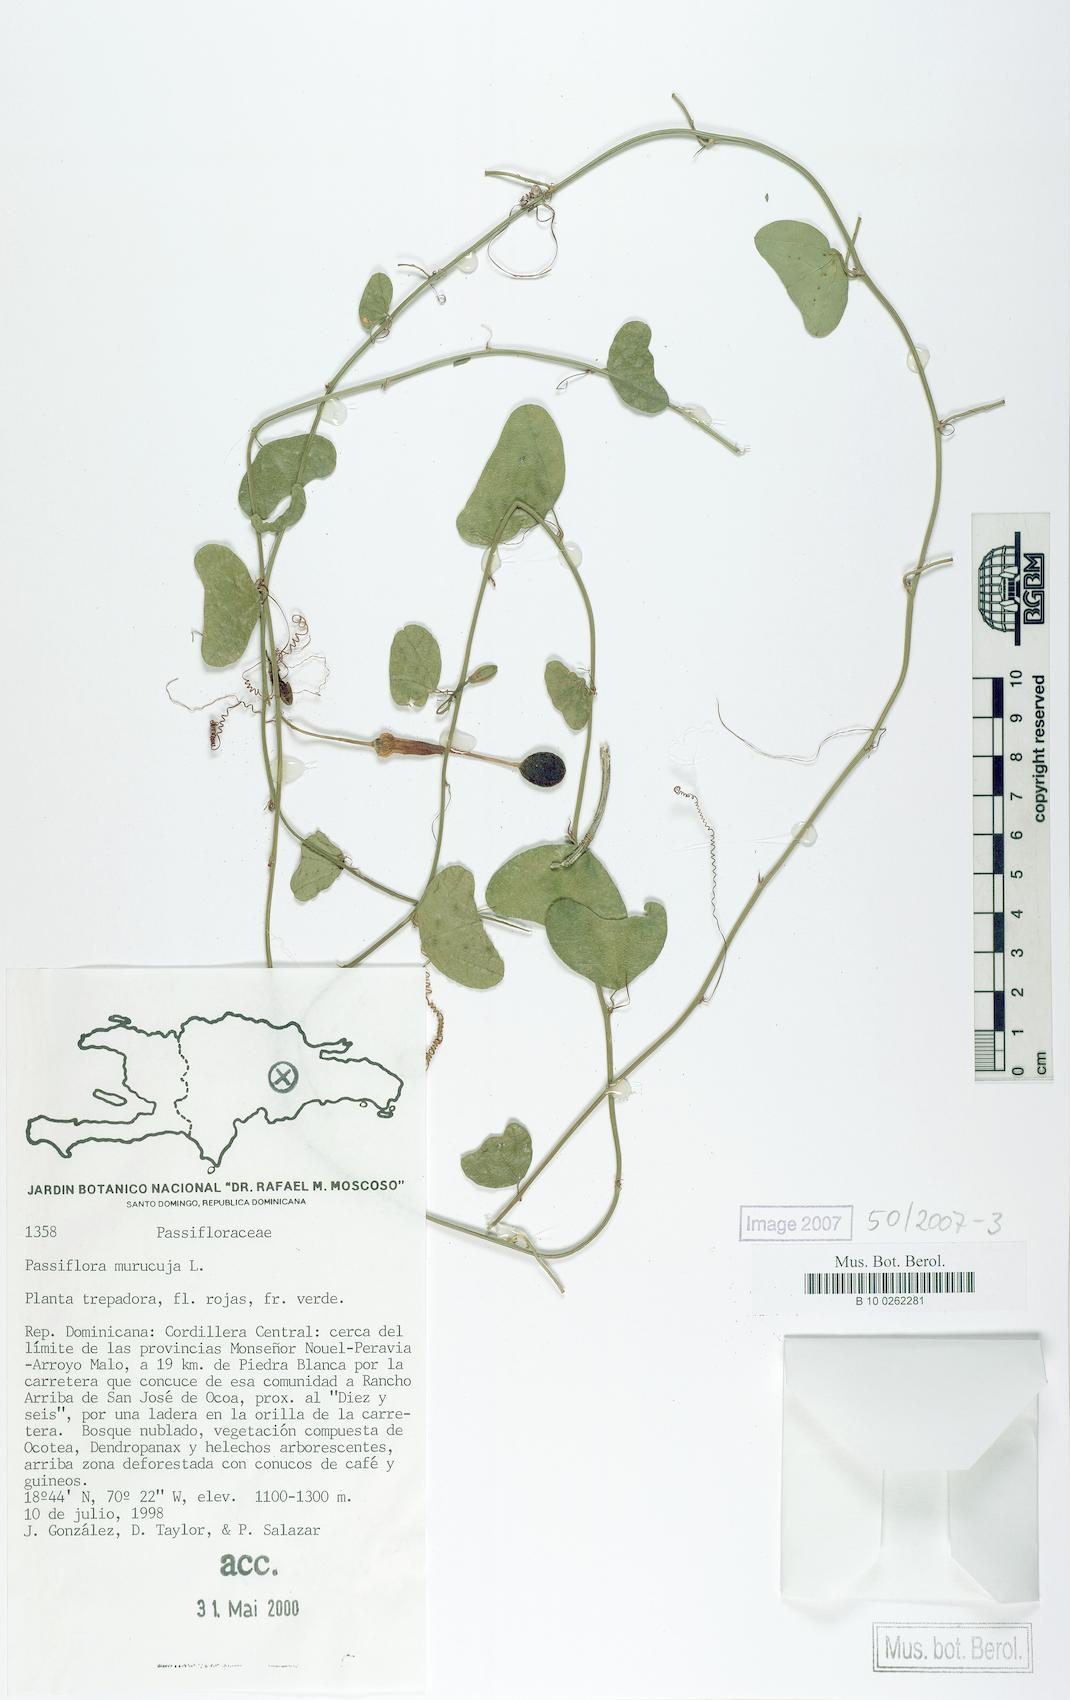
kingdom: Plantae
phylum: Tracheophyta
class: Magnoliopsida
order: Malpighiales
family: Passifloraceae
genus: Passiflora
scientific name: Passiflora murucuja
